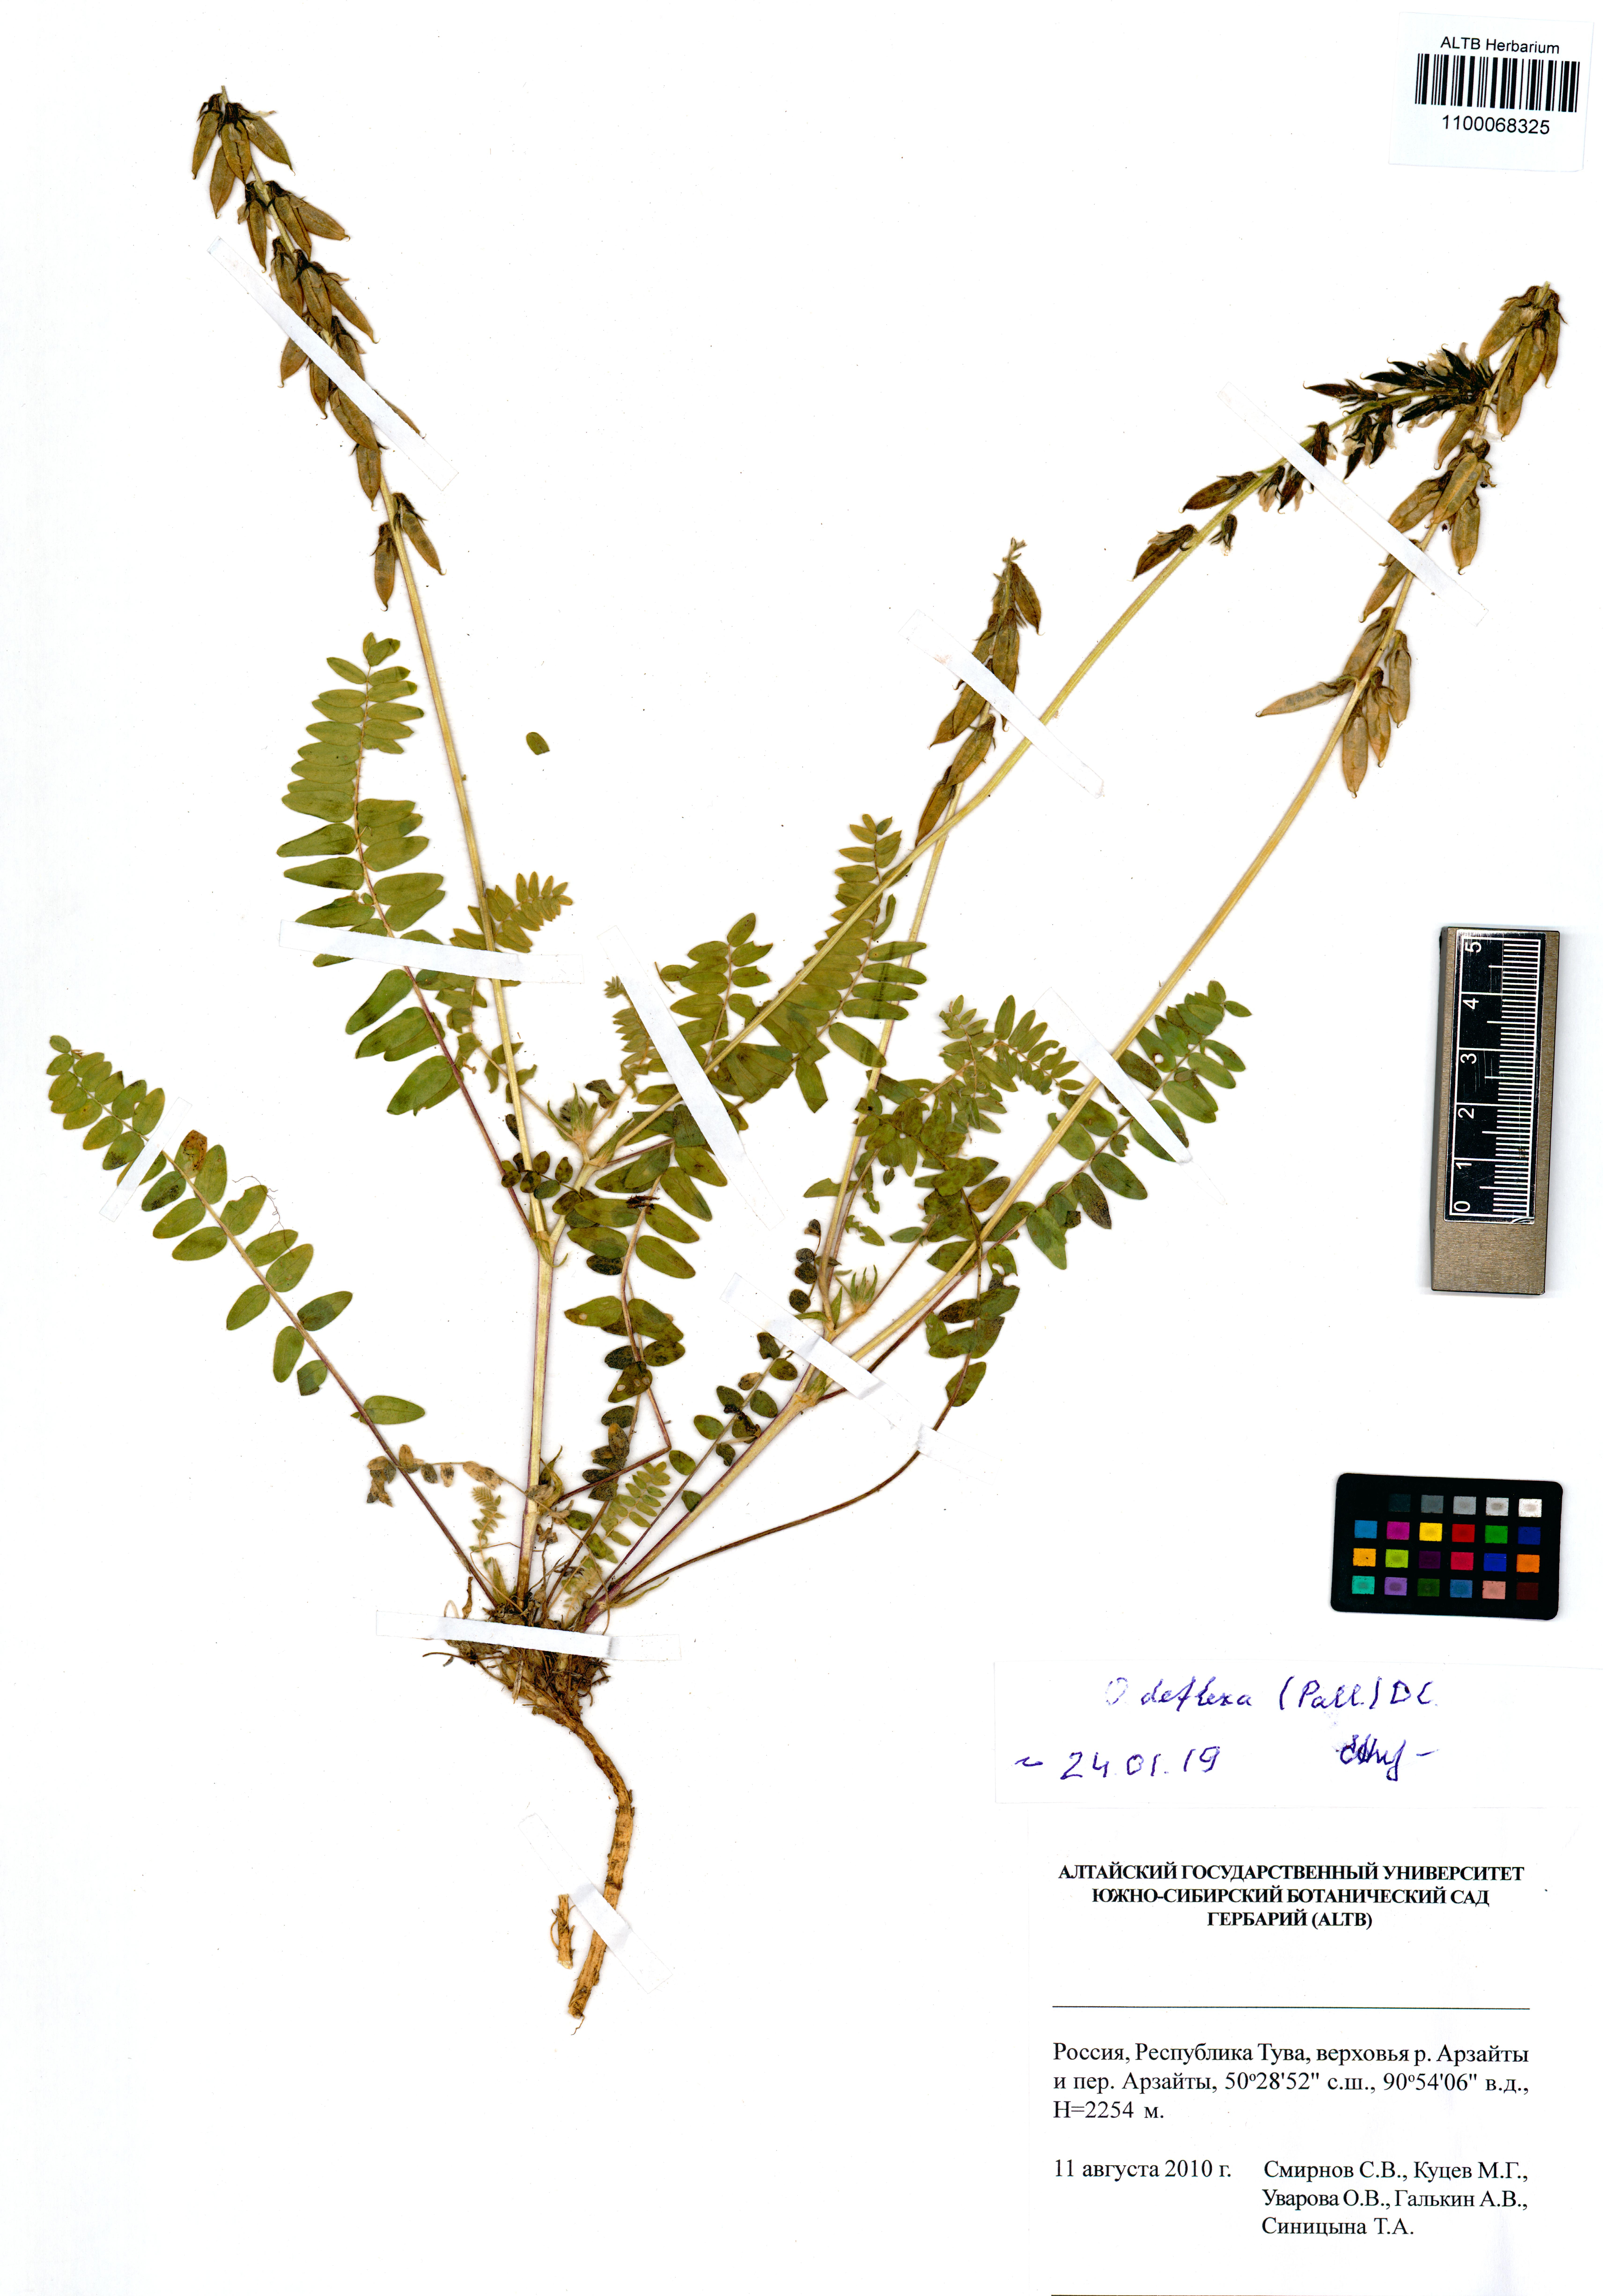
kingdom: Plantae
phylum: Tracheophyta
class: Magnoliopsida
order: Fabales
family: Fabaceae
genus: Oxytropis
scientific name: Oxytropis deflexa
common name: Stemmed oxytrope
